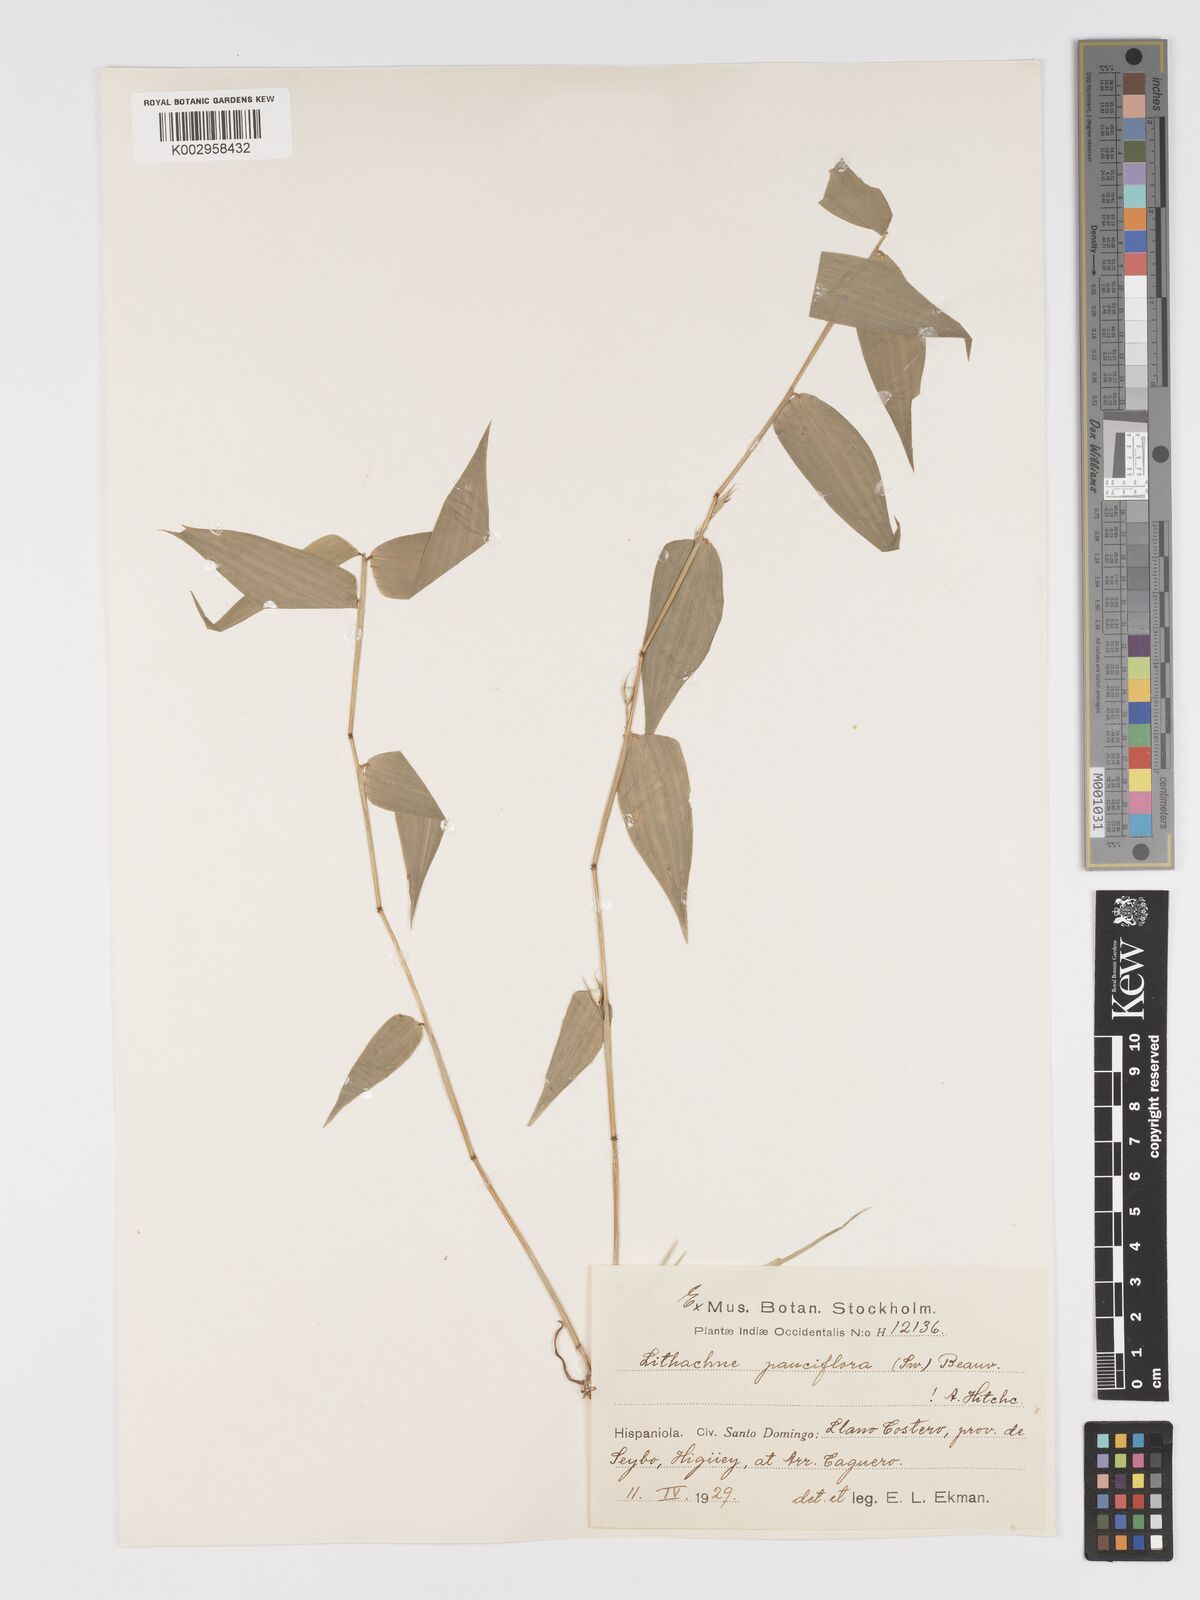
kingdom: Plantae
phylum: Tracheophyta
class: Liliopsida
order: Poales
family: Poaceae
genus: Lithachne
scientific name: Lithachne pauciflora
